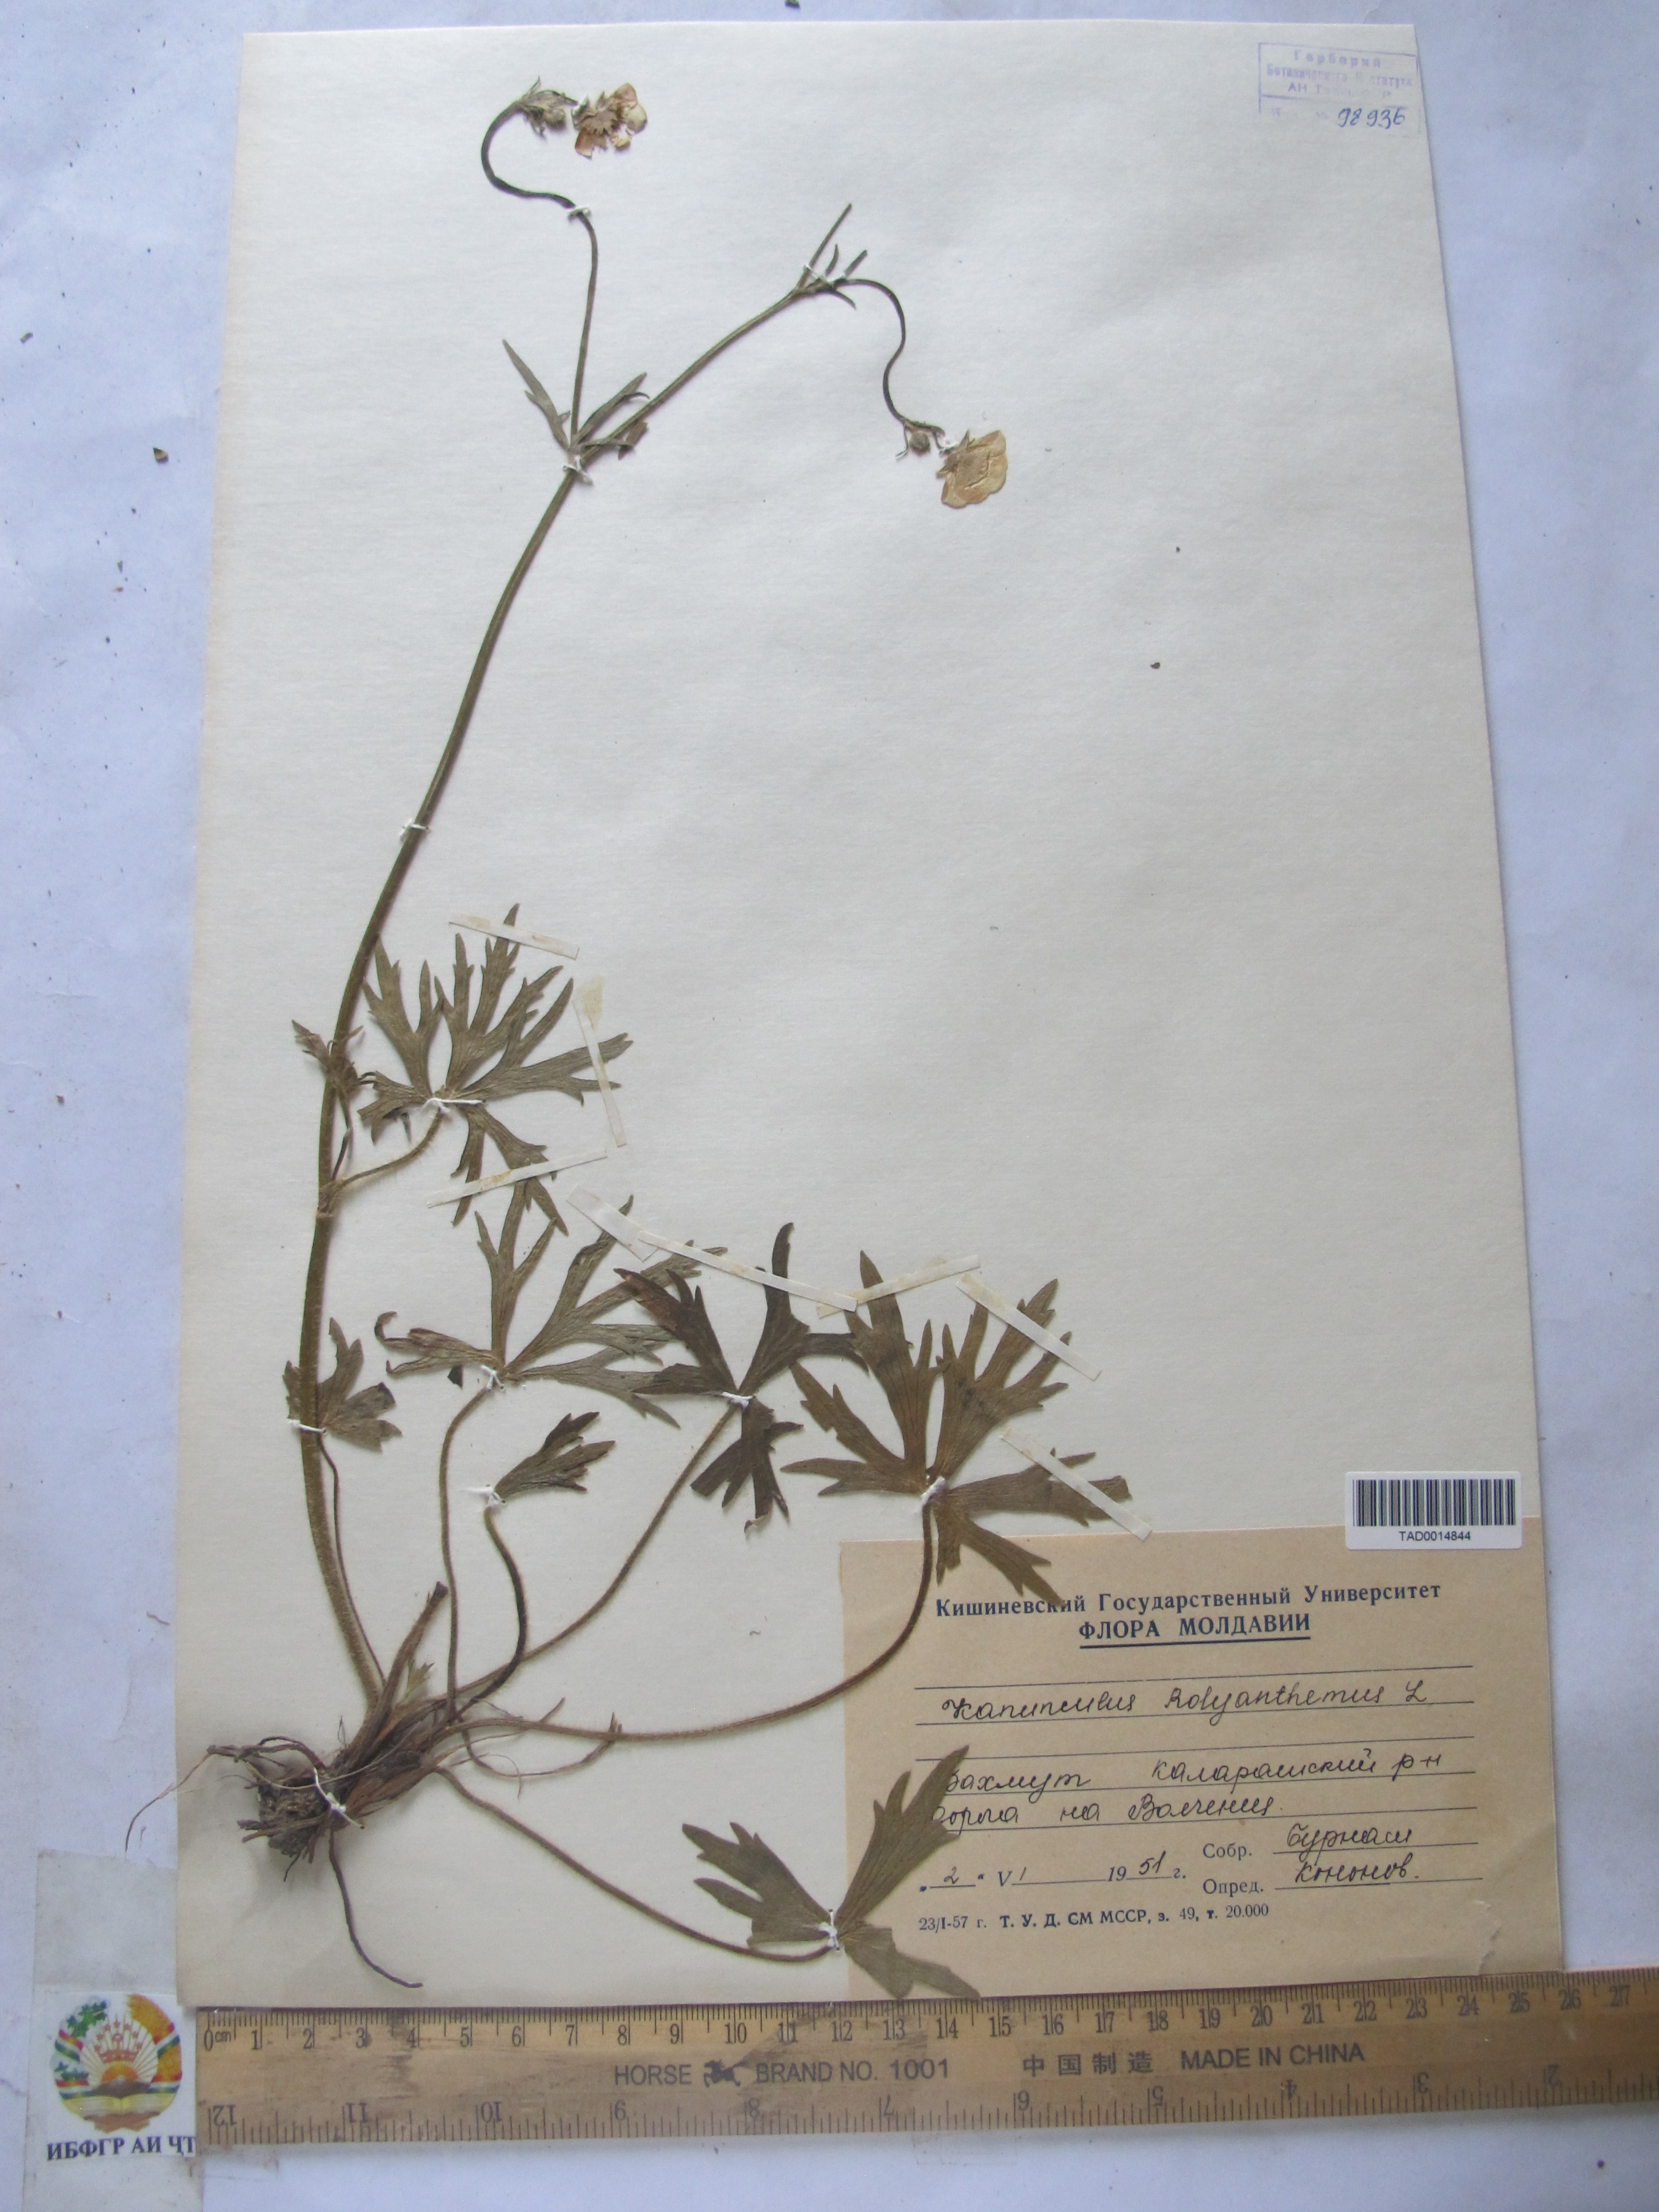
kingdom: Plantae
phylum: Tracheophyta
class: Magnoliopsida
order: Ranunculales
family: Ranunculaceae
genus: Ranunculus
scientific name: Ranunculus polyanthemos
